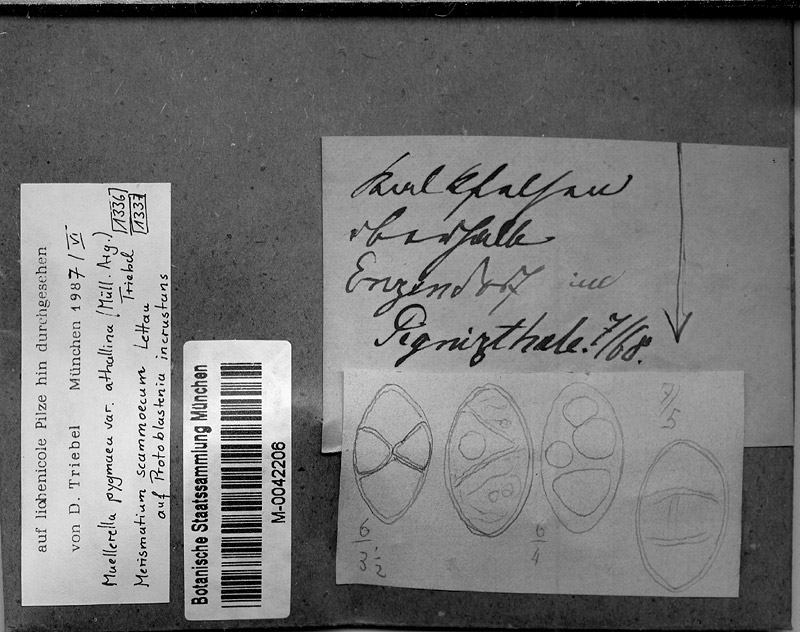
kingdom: Fungi
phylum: Ascomycota
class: Eurotiomycetes
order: Verrucariales
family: Verrucariaceae
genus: Muellerella
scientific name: Muellerella erratica
